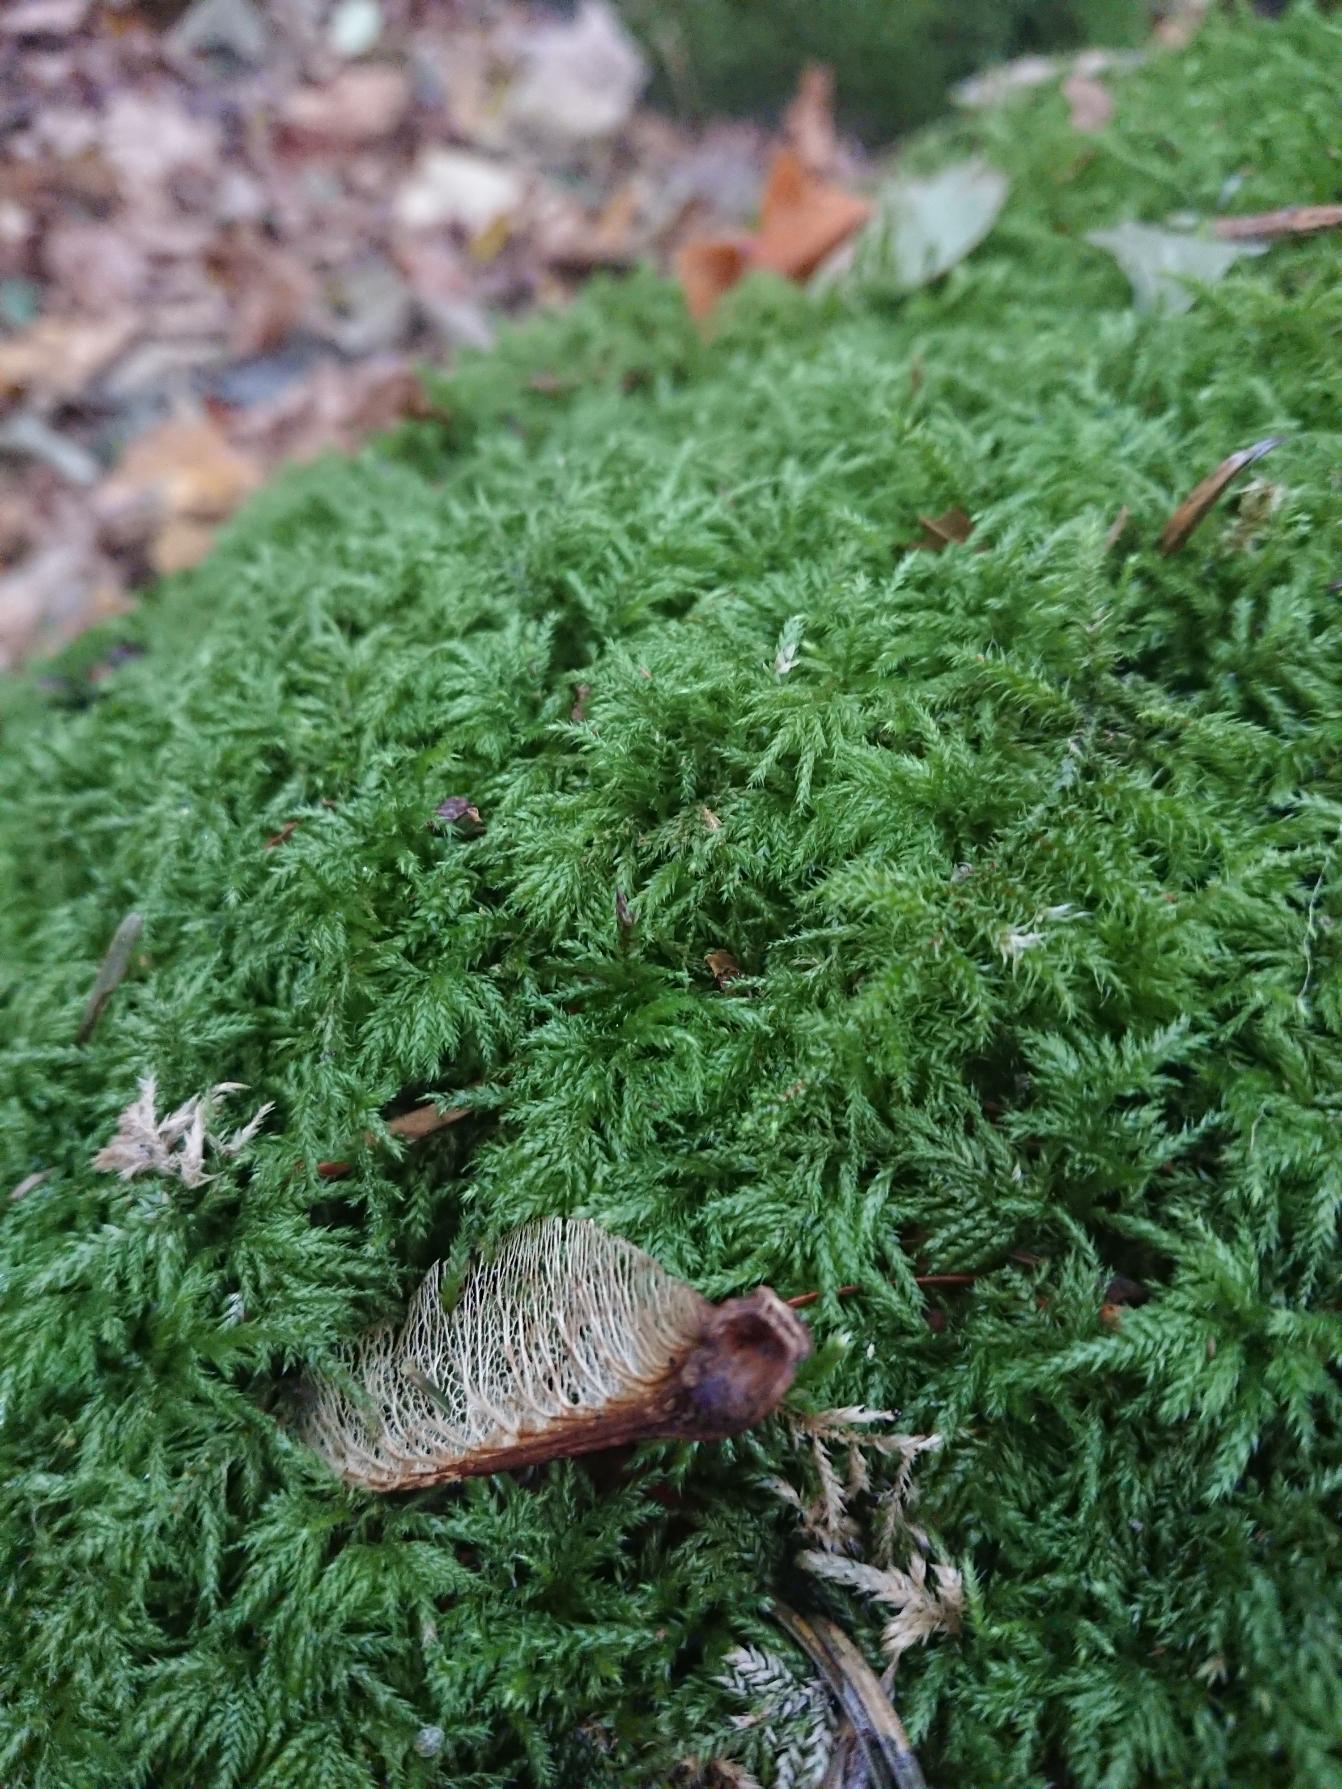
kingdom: Plantae
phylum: Bryophyta
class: Bryopsida
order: Hypnales
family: Lembophyllaceae
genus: Pseudisothecium
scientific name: Pseudisothecium myosuroides
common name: Slank stammemos
